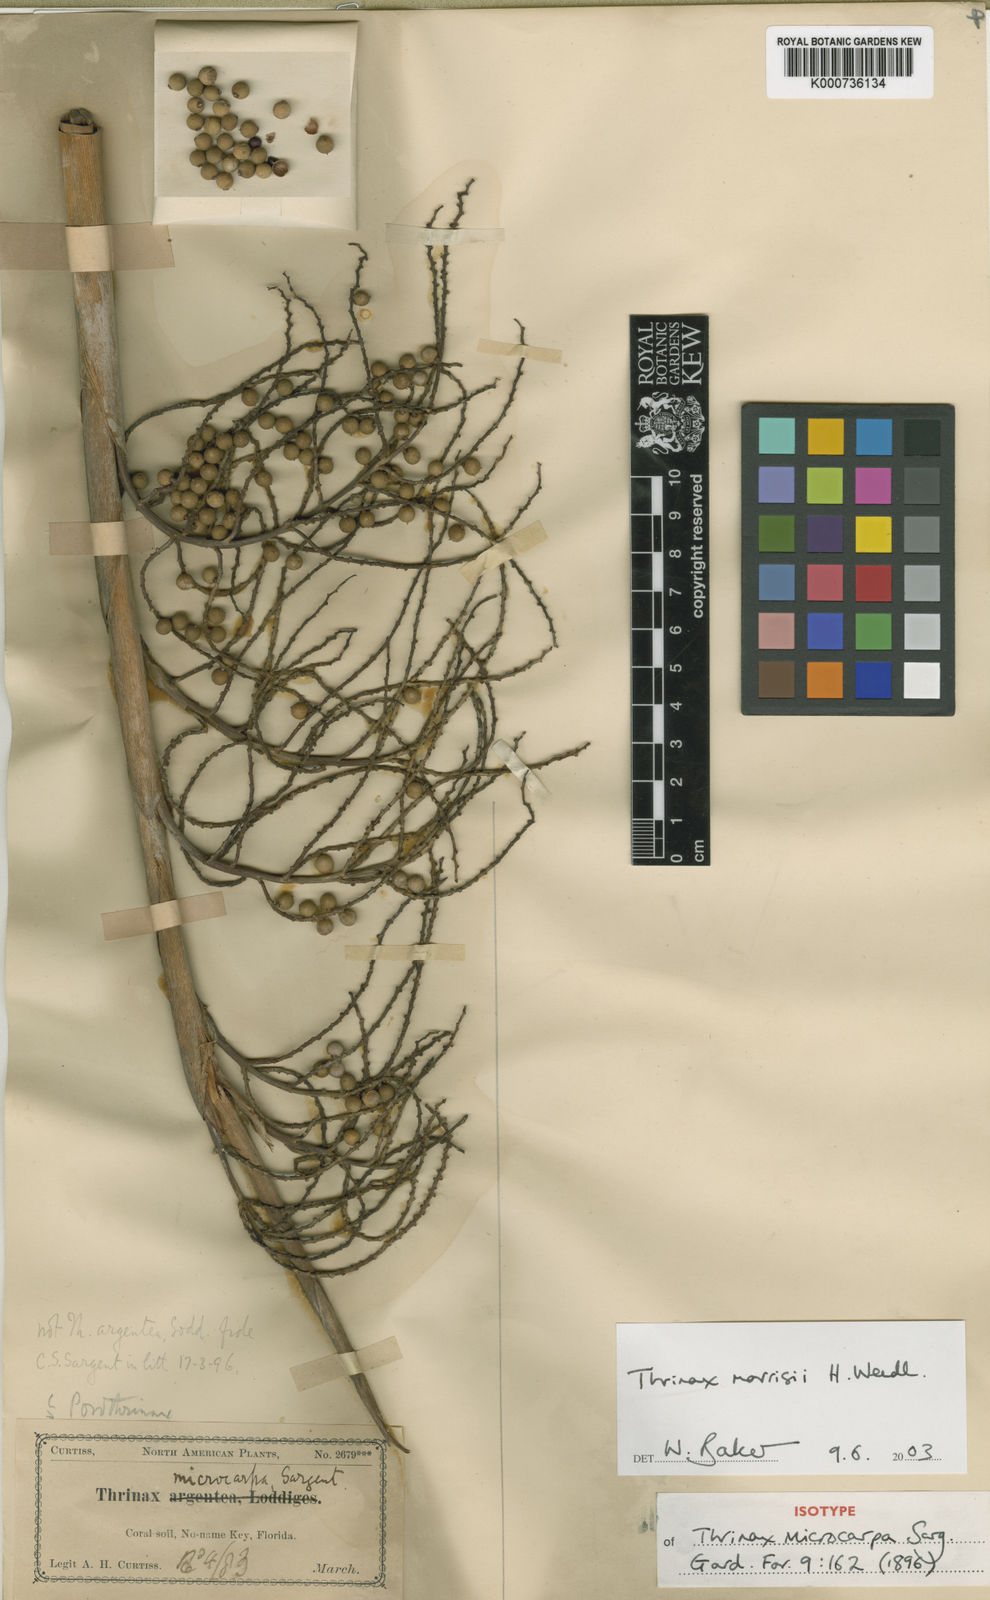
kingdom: Plantae
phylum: Tracheophyta
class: Liliopsida
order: Arecales
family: Arecaceae
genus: Leucothrinax
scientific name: Leucothrinax morrisii
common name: Key palm
